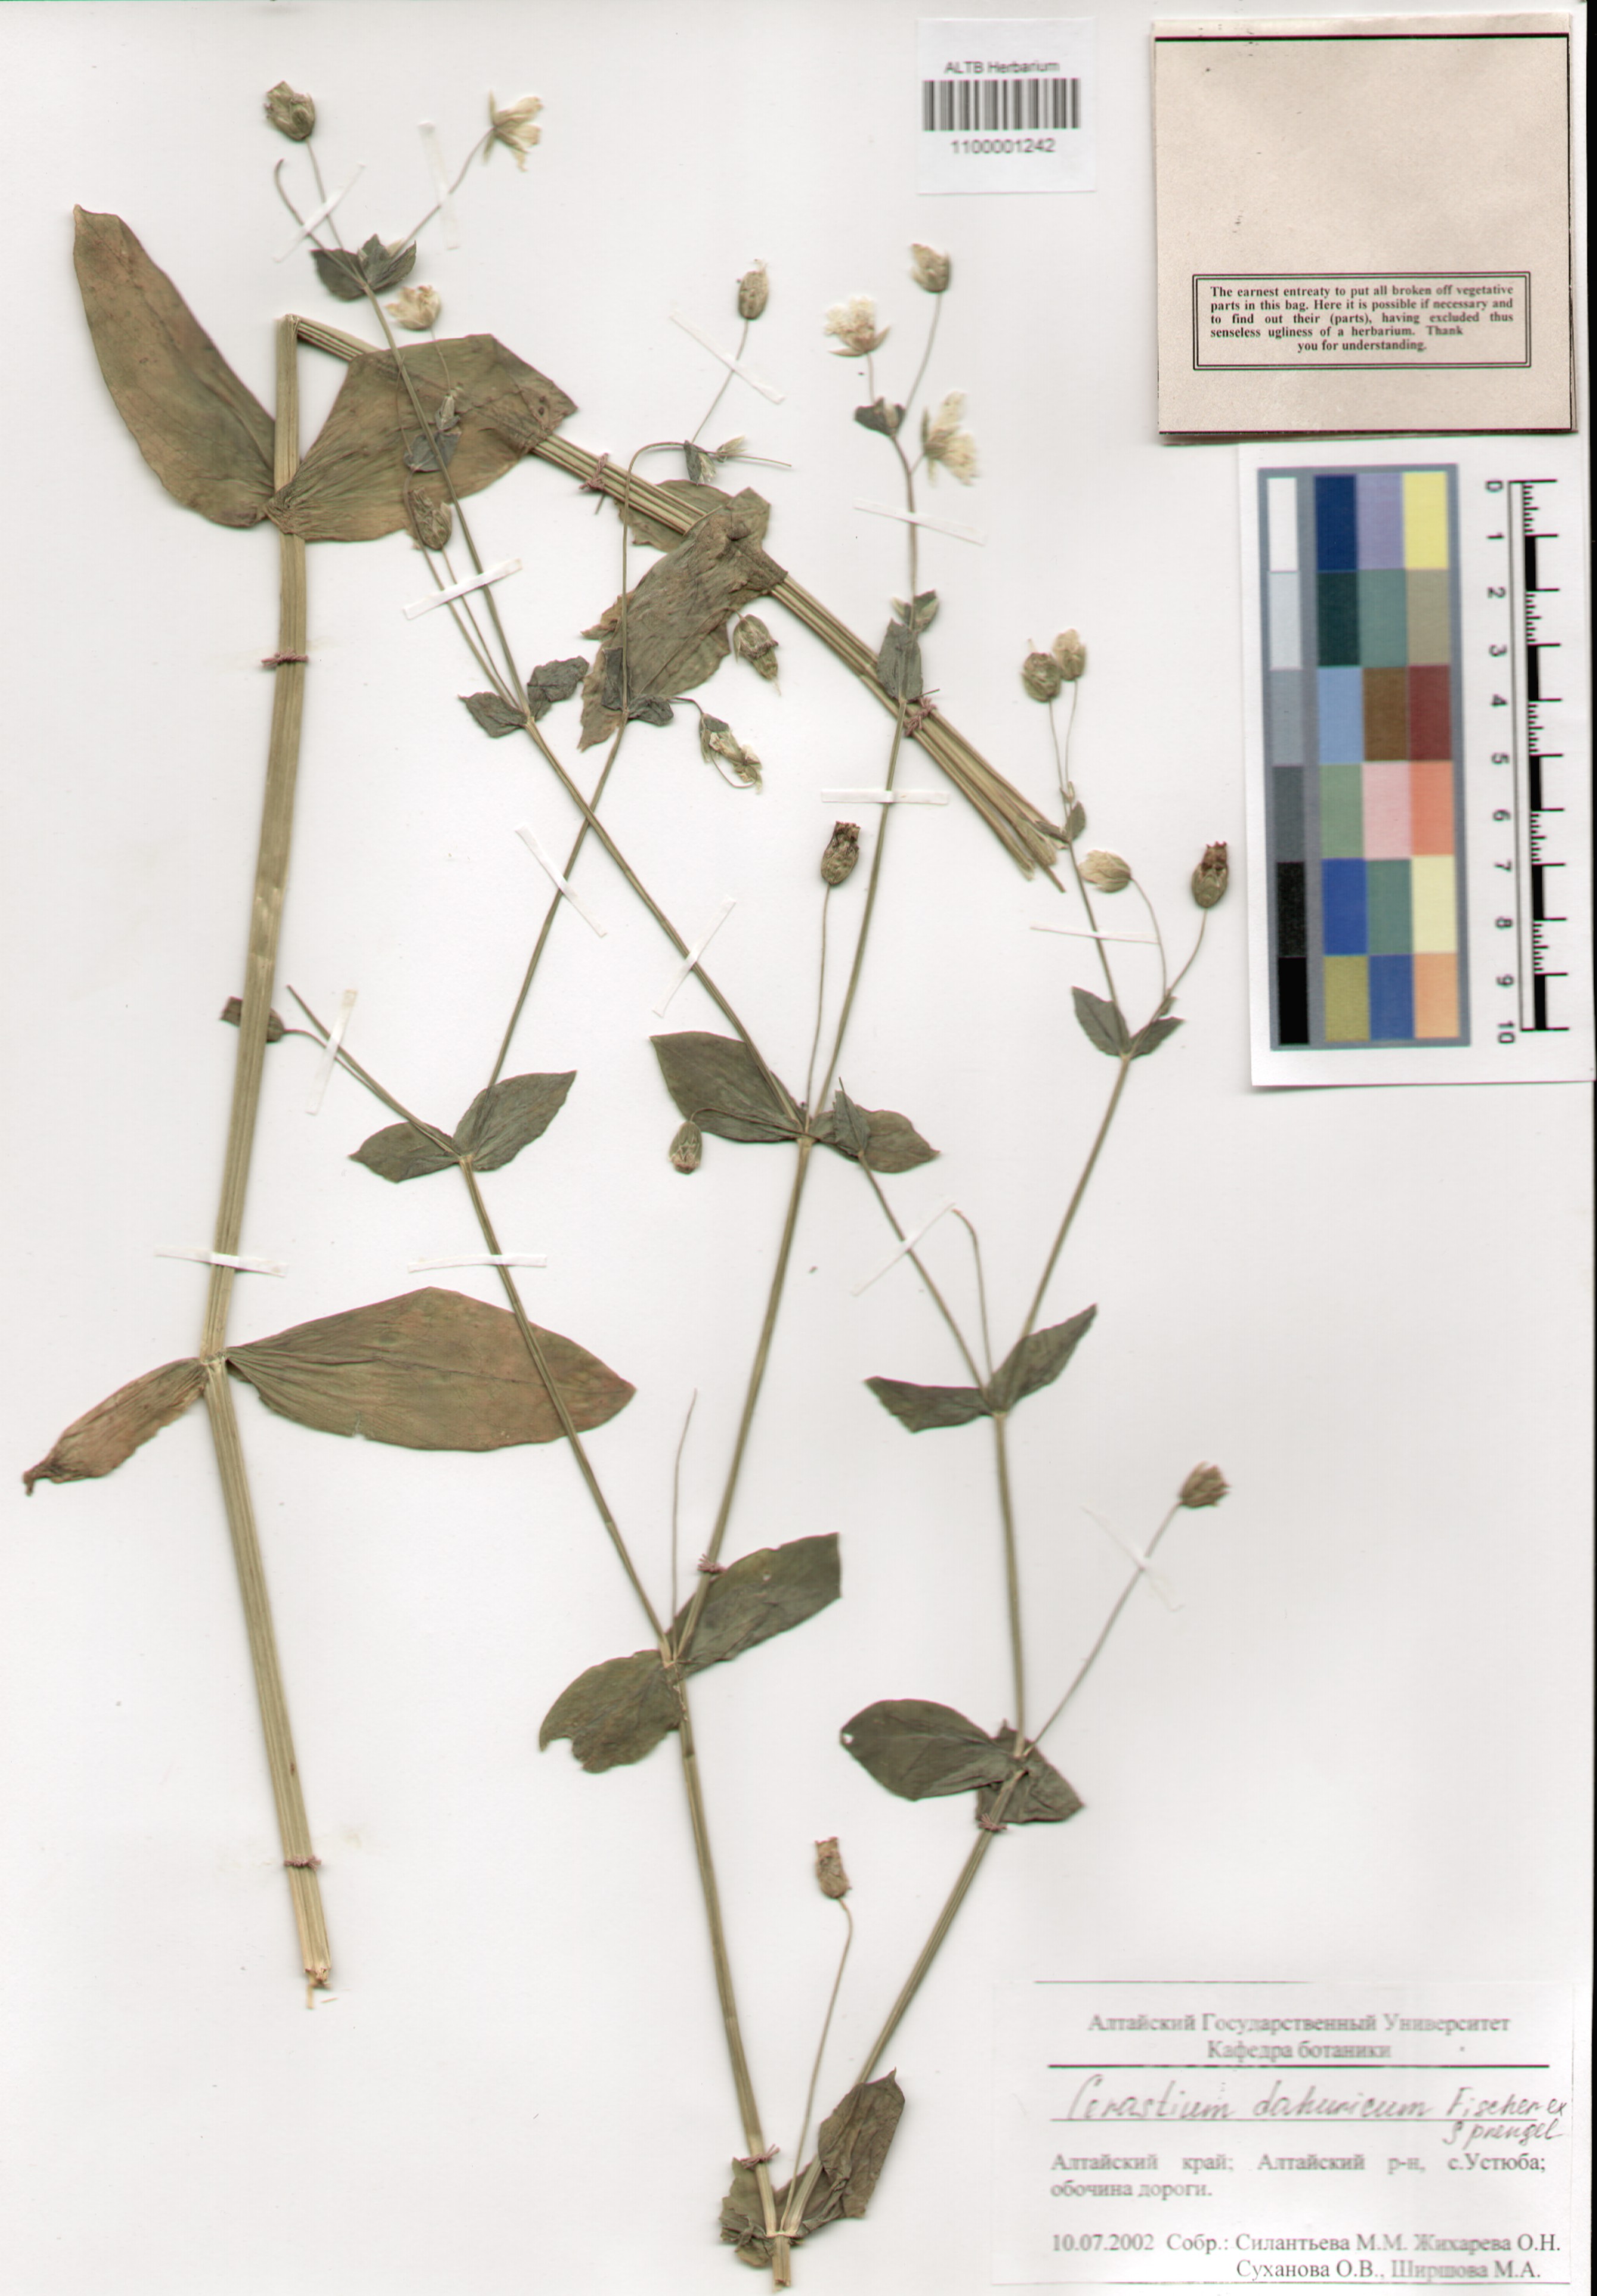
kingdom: Plantae
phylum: Tracheophyta
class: Magnoliopsida
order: Caryophyllales
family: Caryophyllaceae
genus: Dichodon
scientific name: Dichodon davuricum
